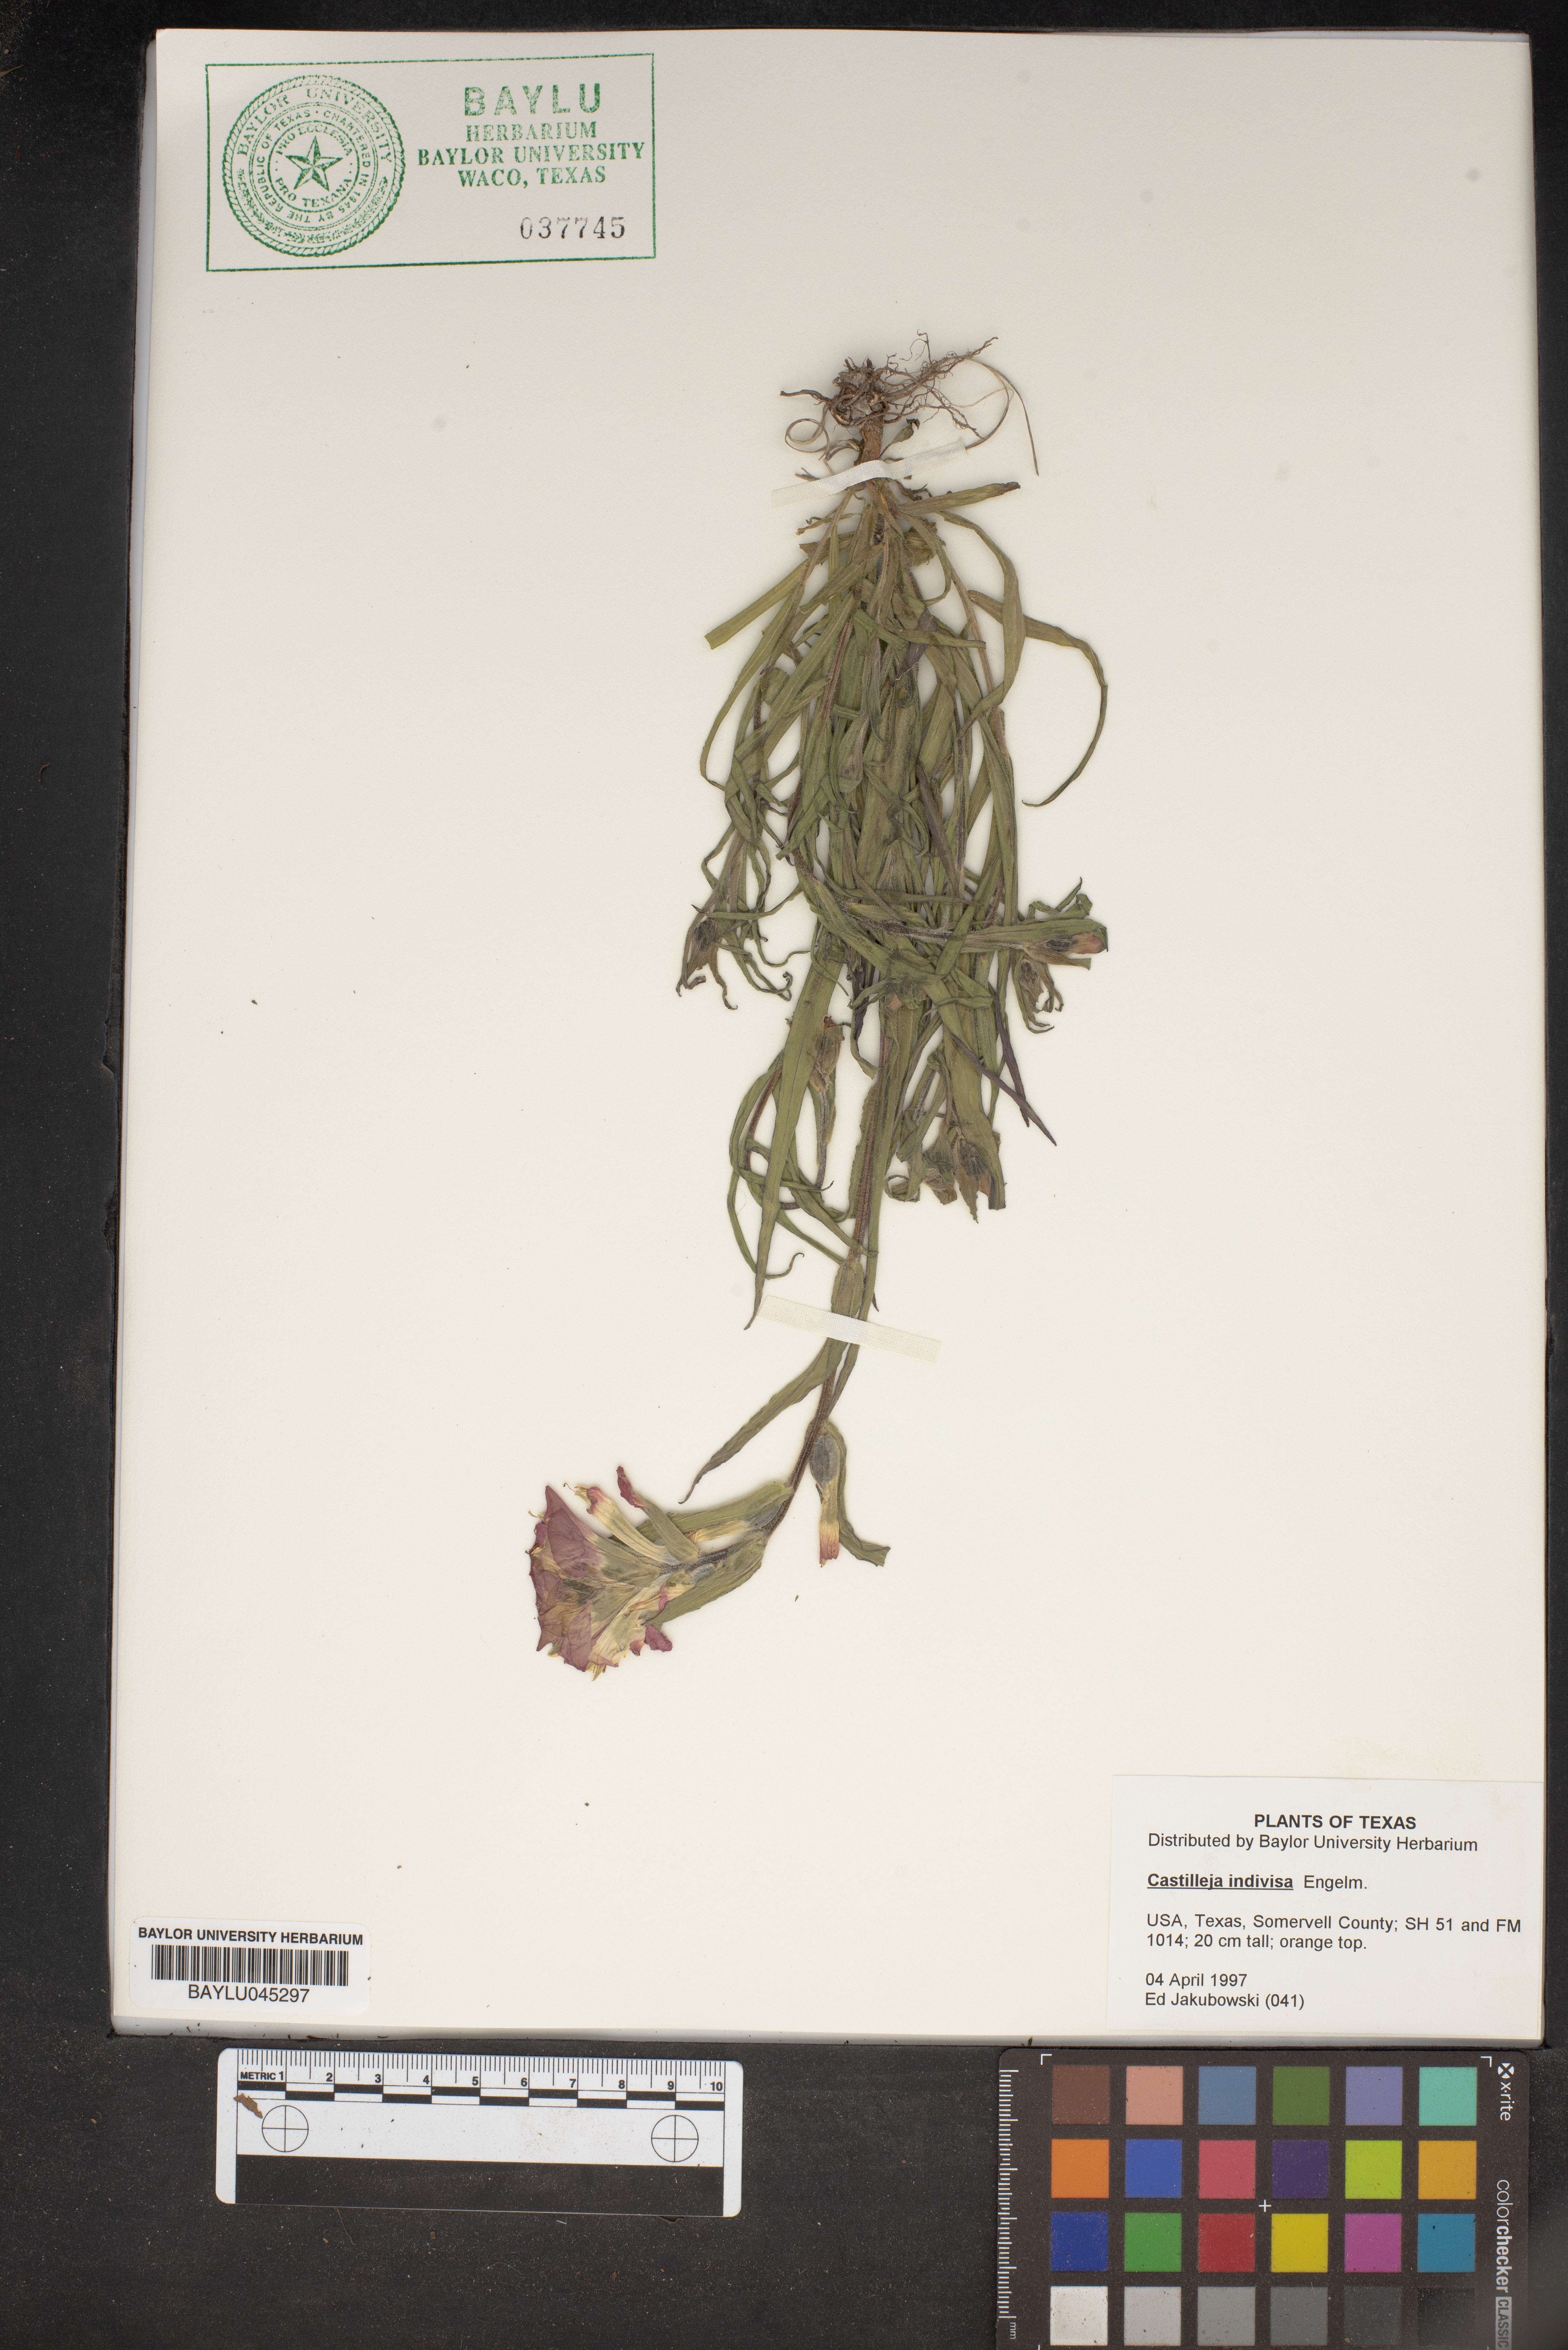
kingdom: Plantae
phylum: Tracheophyta
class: Magnoliopsida
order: Lamiales
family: Orobanchaceae
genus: Castilleja
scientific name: Castilleja indivisa
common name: Texas paintbrush
